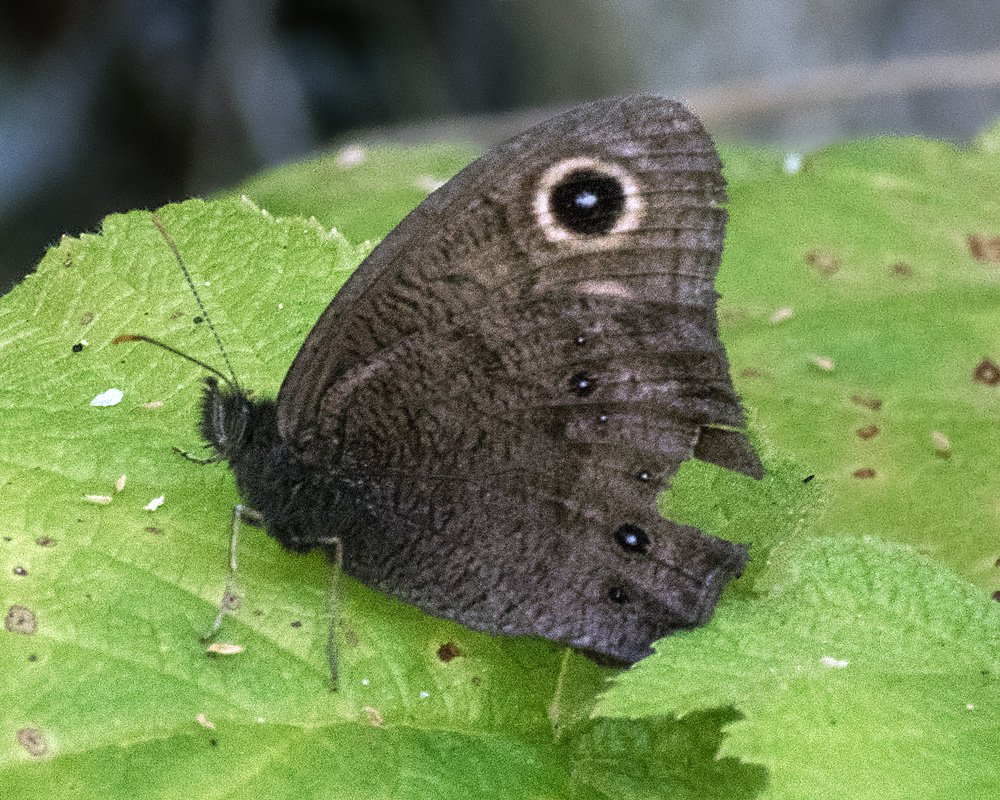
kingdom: Animalia
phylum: Arthropoda
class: Insecta
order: Lepidoptera
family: Nymphalidae
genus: Cercyonis
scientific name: Cercyonis pegala
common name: Common Wood-Nymph
